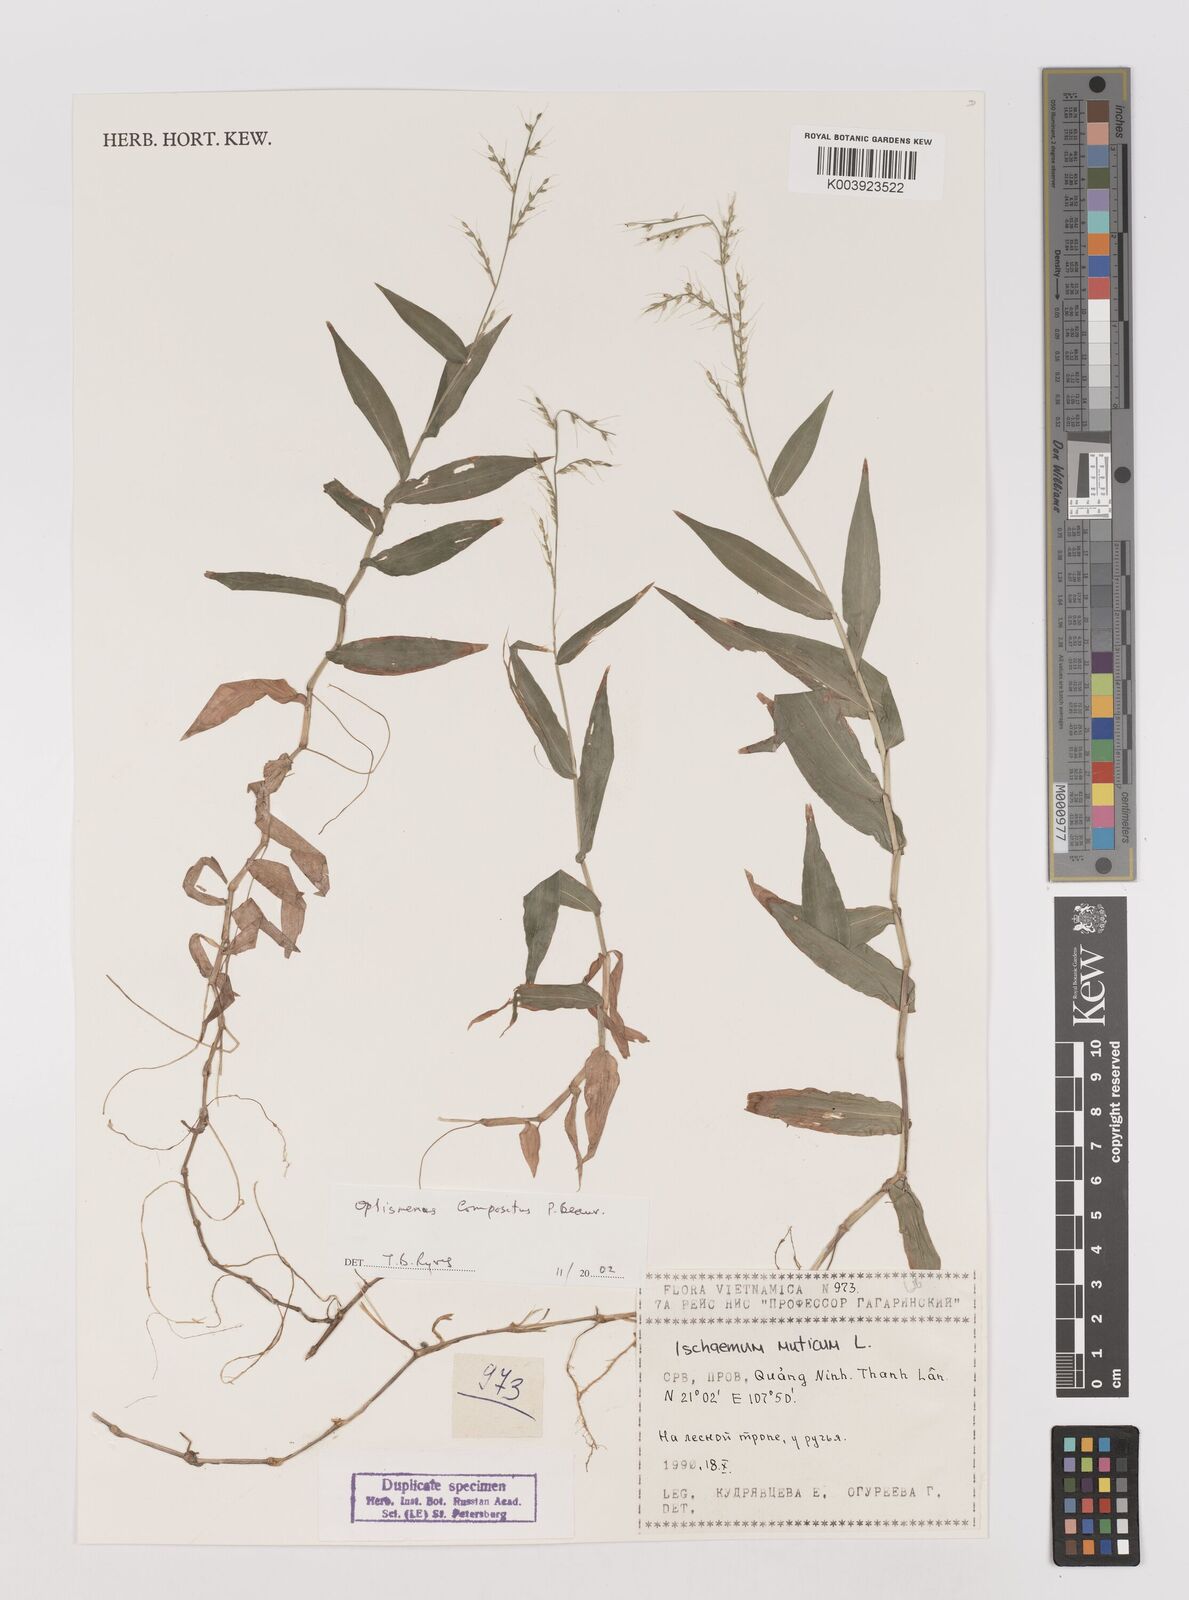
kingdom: Plantae
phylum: Tracheophyta
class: Liliopsida
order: Poales
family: Poaceae
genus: Oplismenus
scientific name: Oplismenus compositus
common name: Running mountain grass
